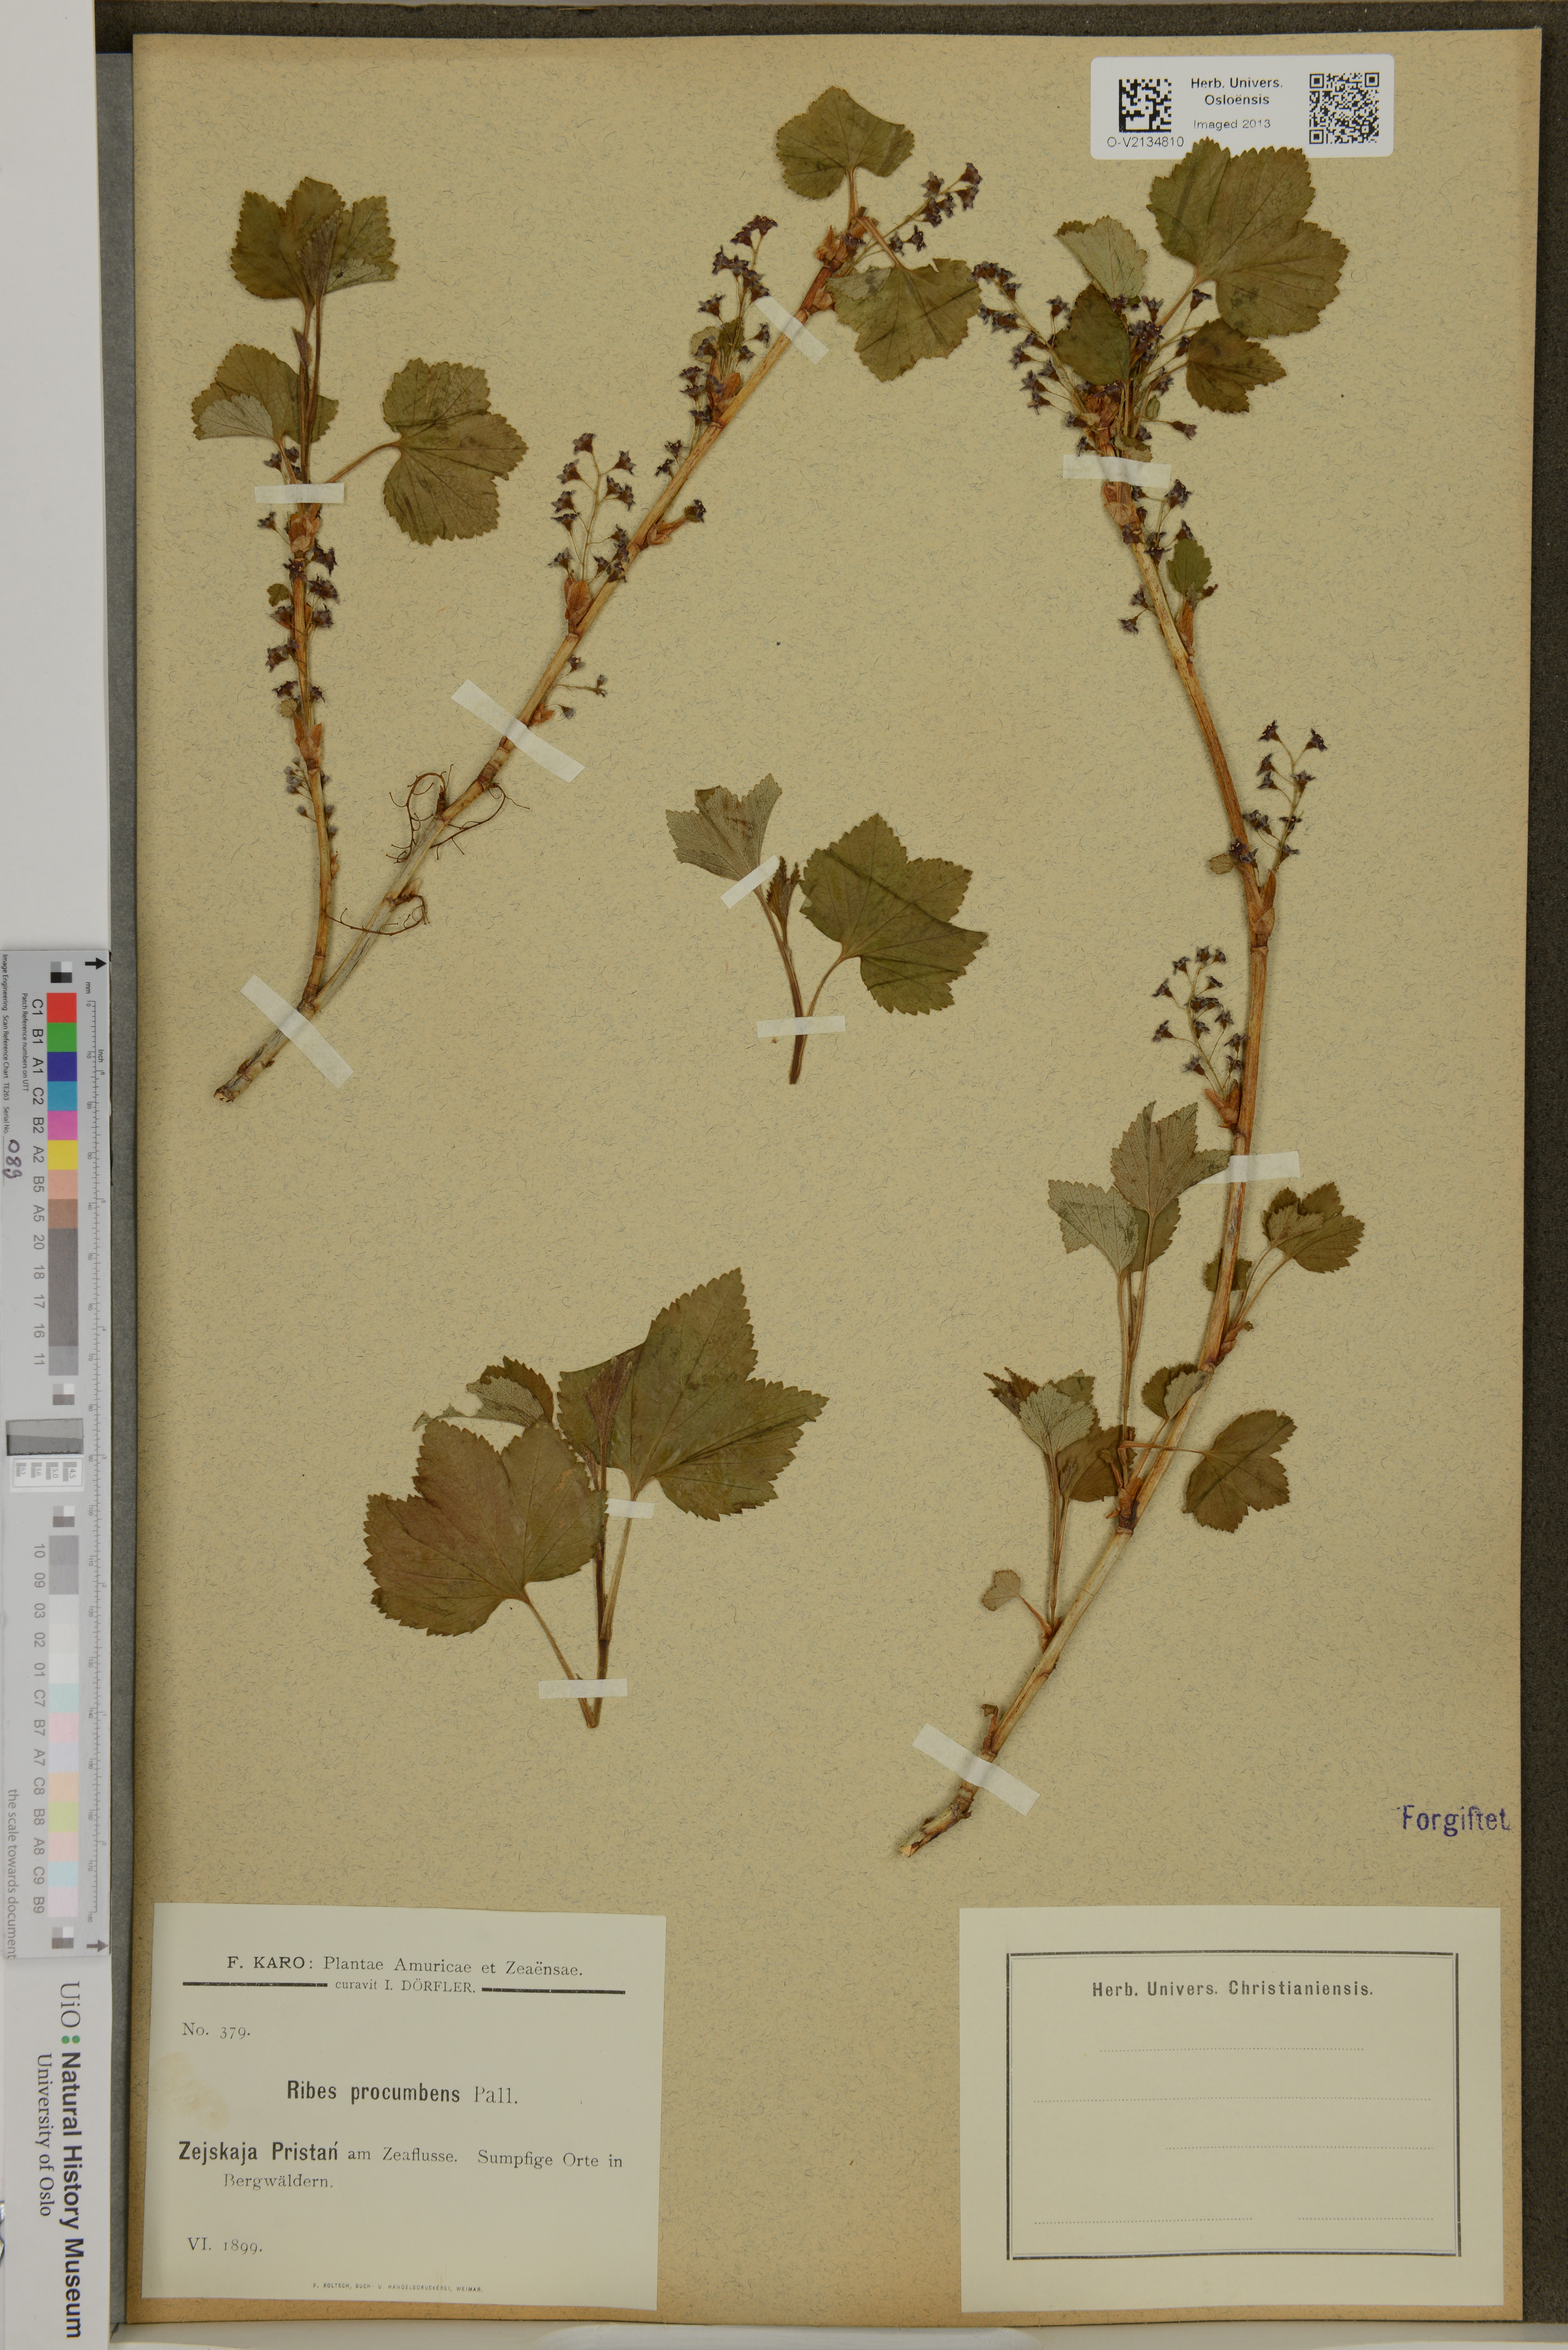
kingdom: Plantae
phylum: Tracheophyta
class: Magnoliopsida
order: Saxifragales
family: Grossulariaceae
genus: Ribes
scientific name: Ribes procumbens
